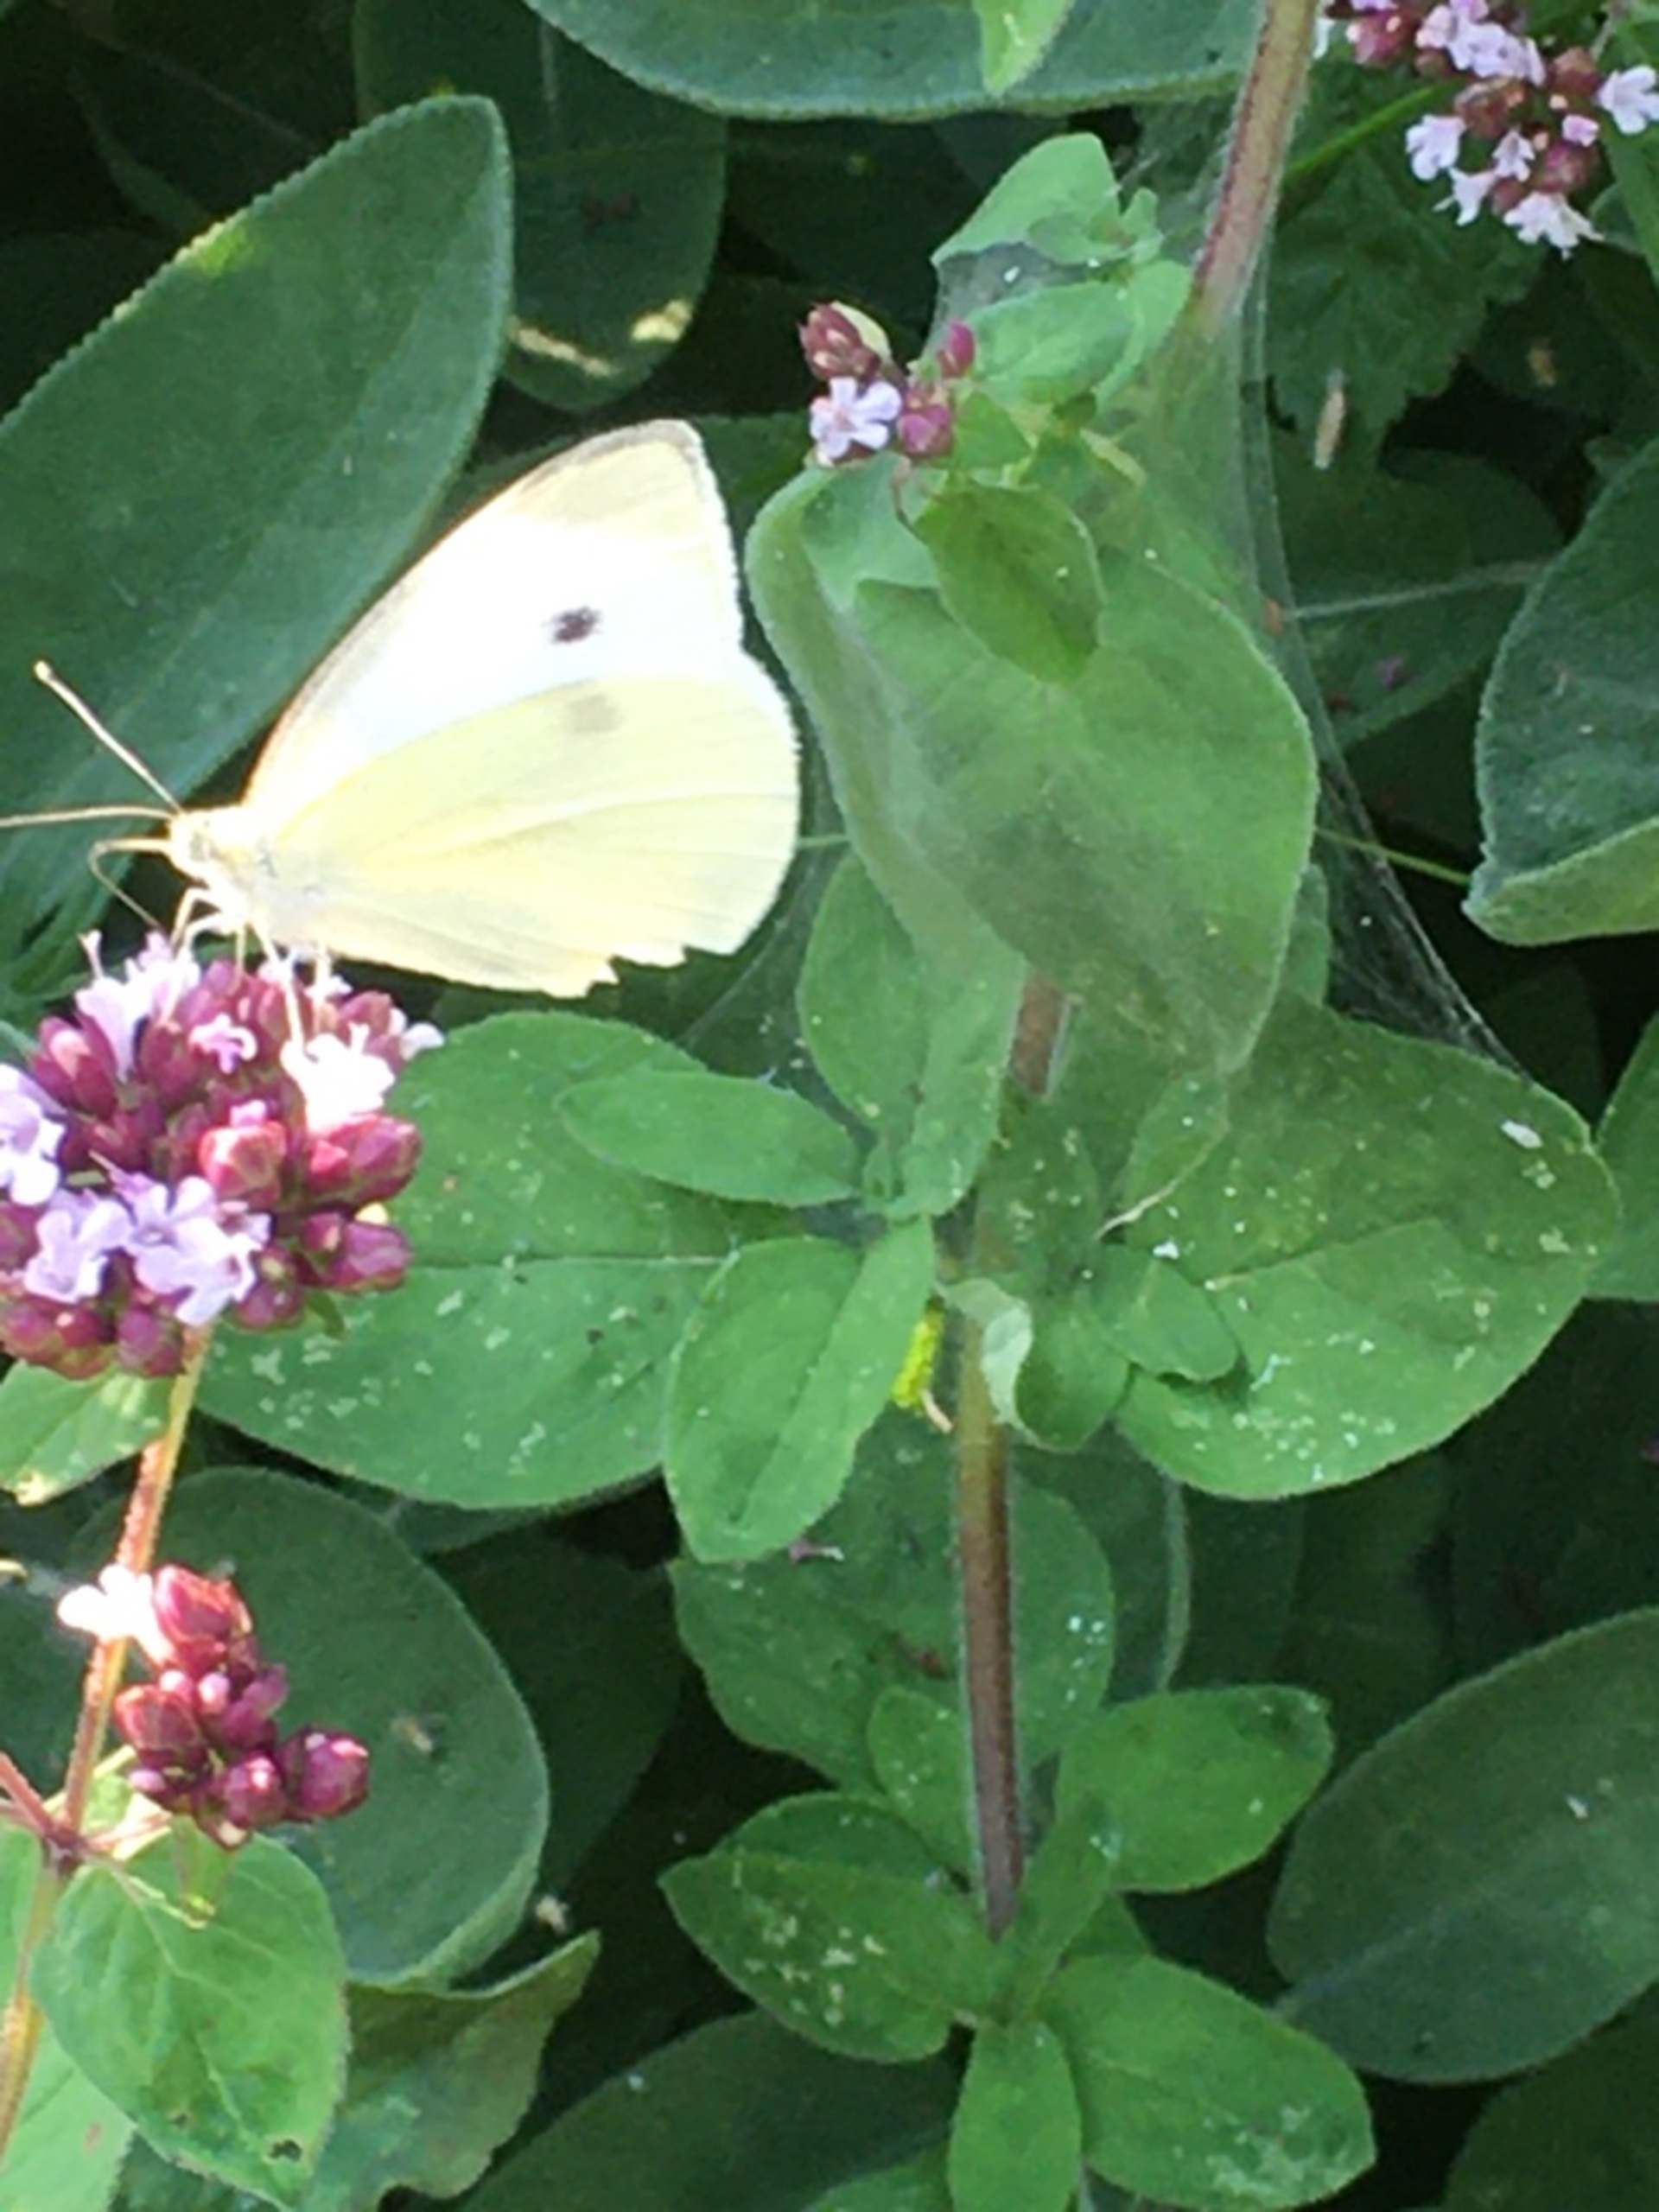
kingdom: Animalia
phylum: Arthropoda
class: Insecta
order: Lepidoptera
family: Pieridae
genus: Pieris
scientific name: Pieris rapae
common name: Lille kålsommerfugl
